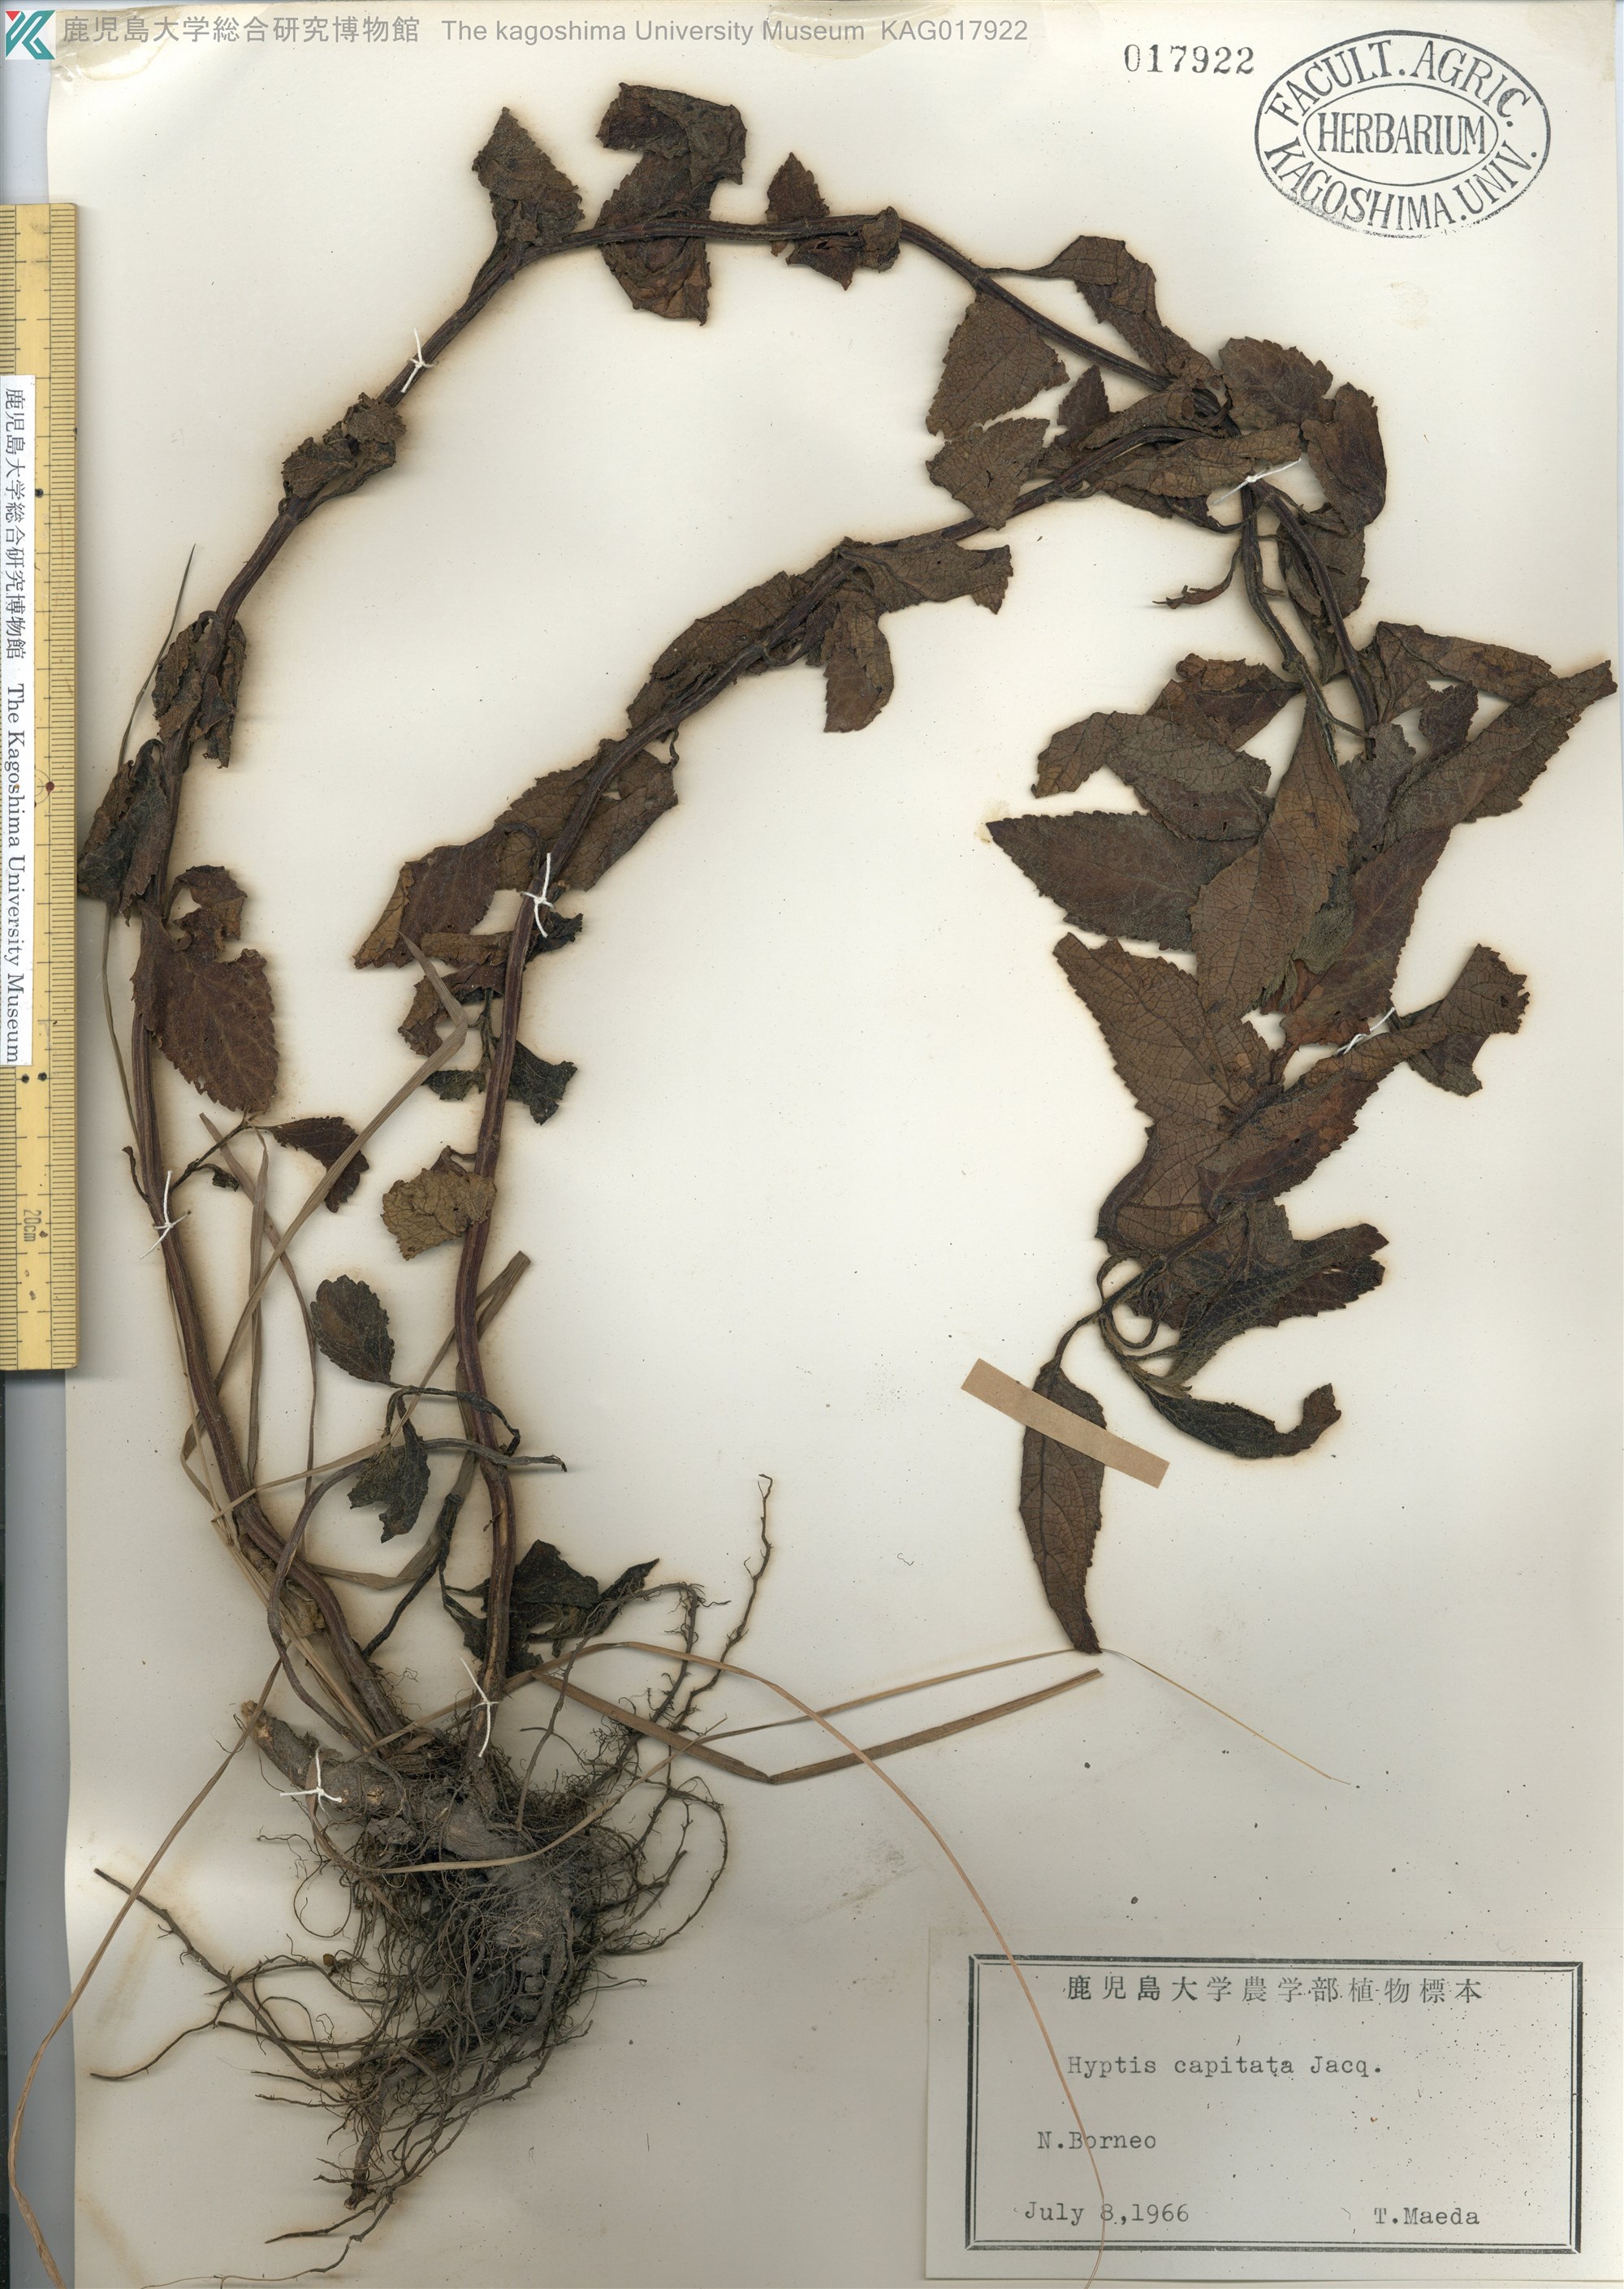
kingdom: Plantae
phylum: Tracheophyta
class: Magnoliopsida
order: Lamiales
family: Lamiaceae
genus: Hyptis
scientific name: Hyptis capitata
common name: False ironwort
